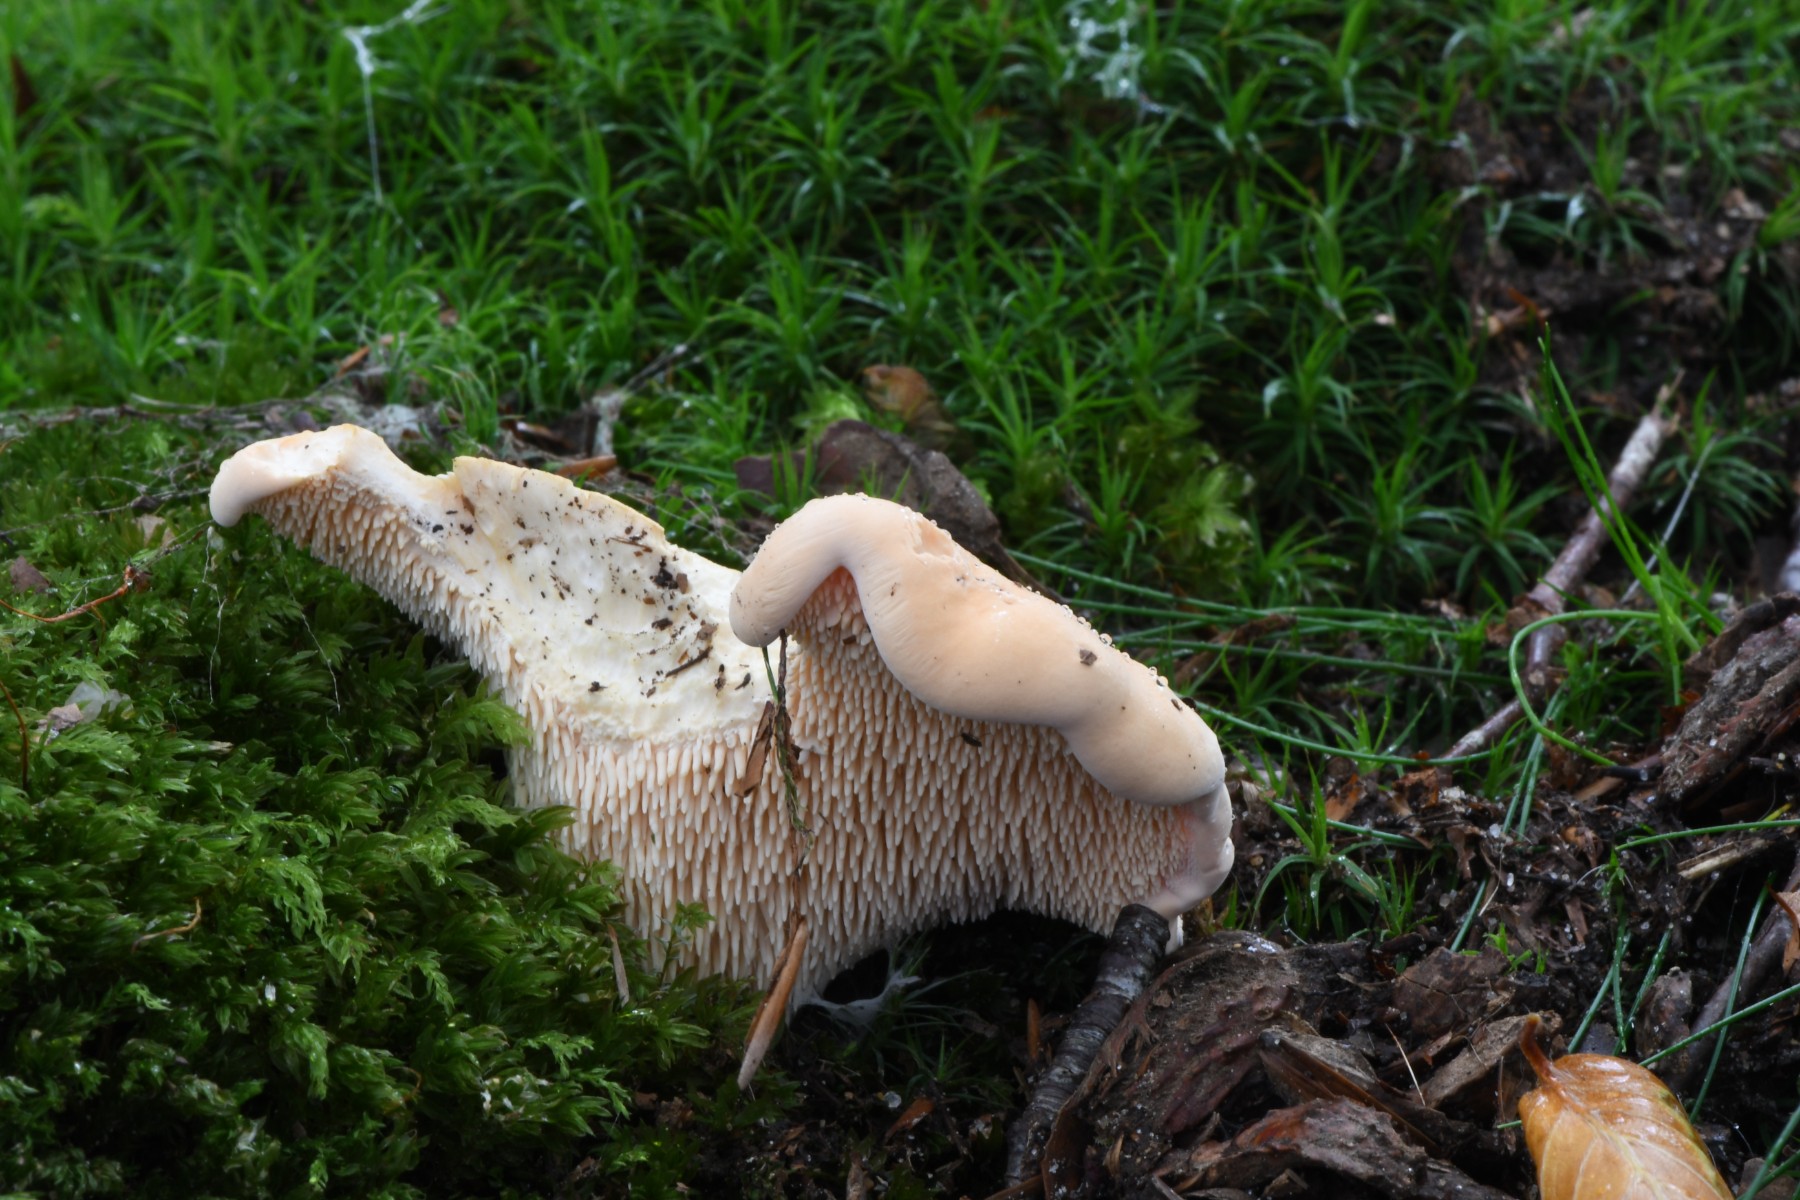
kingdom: Fungi
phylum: Basidiomycota
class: Agaricomycetes
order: Cantharellales
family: Hydnaceae
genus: Hydnum
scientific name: Hydnum
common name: pigsvamp
